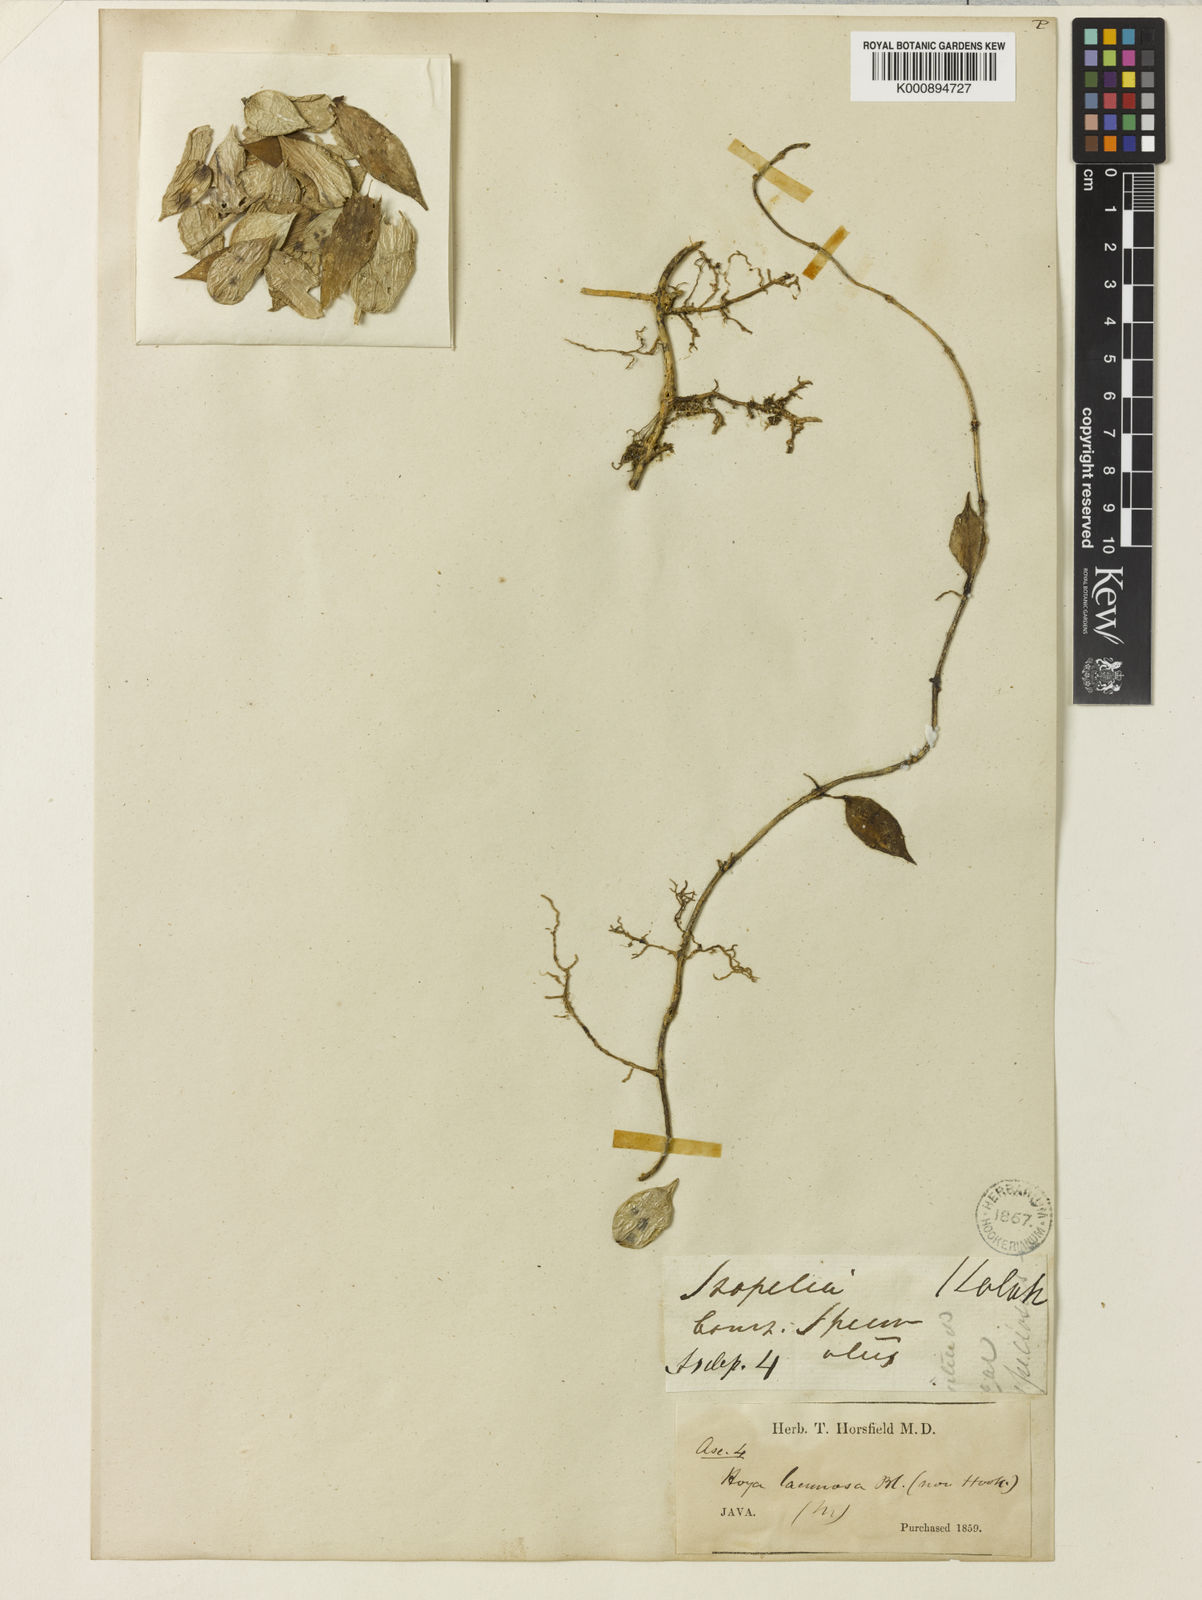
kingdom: Plantae
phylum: Tracheophyta
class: Magnoliopsida
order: Gentianales
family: Apocynaceae
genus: Hoya
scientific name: Hoya lacunosa
